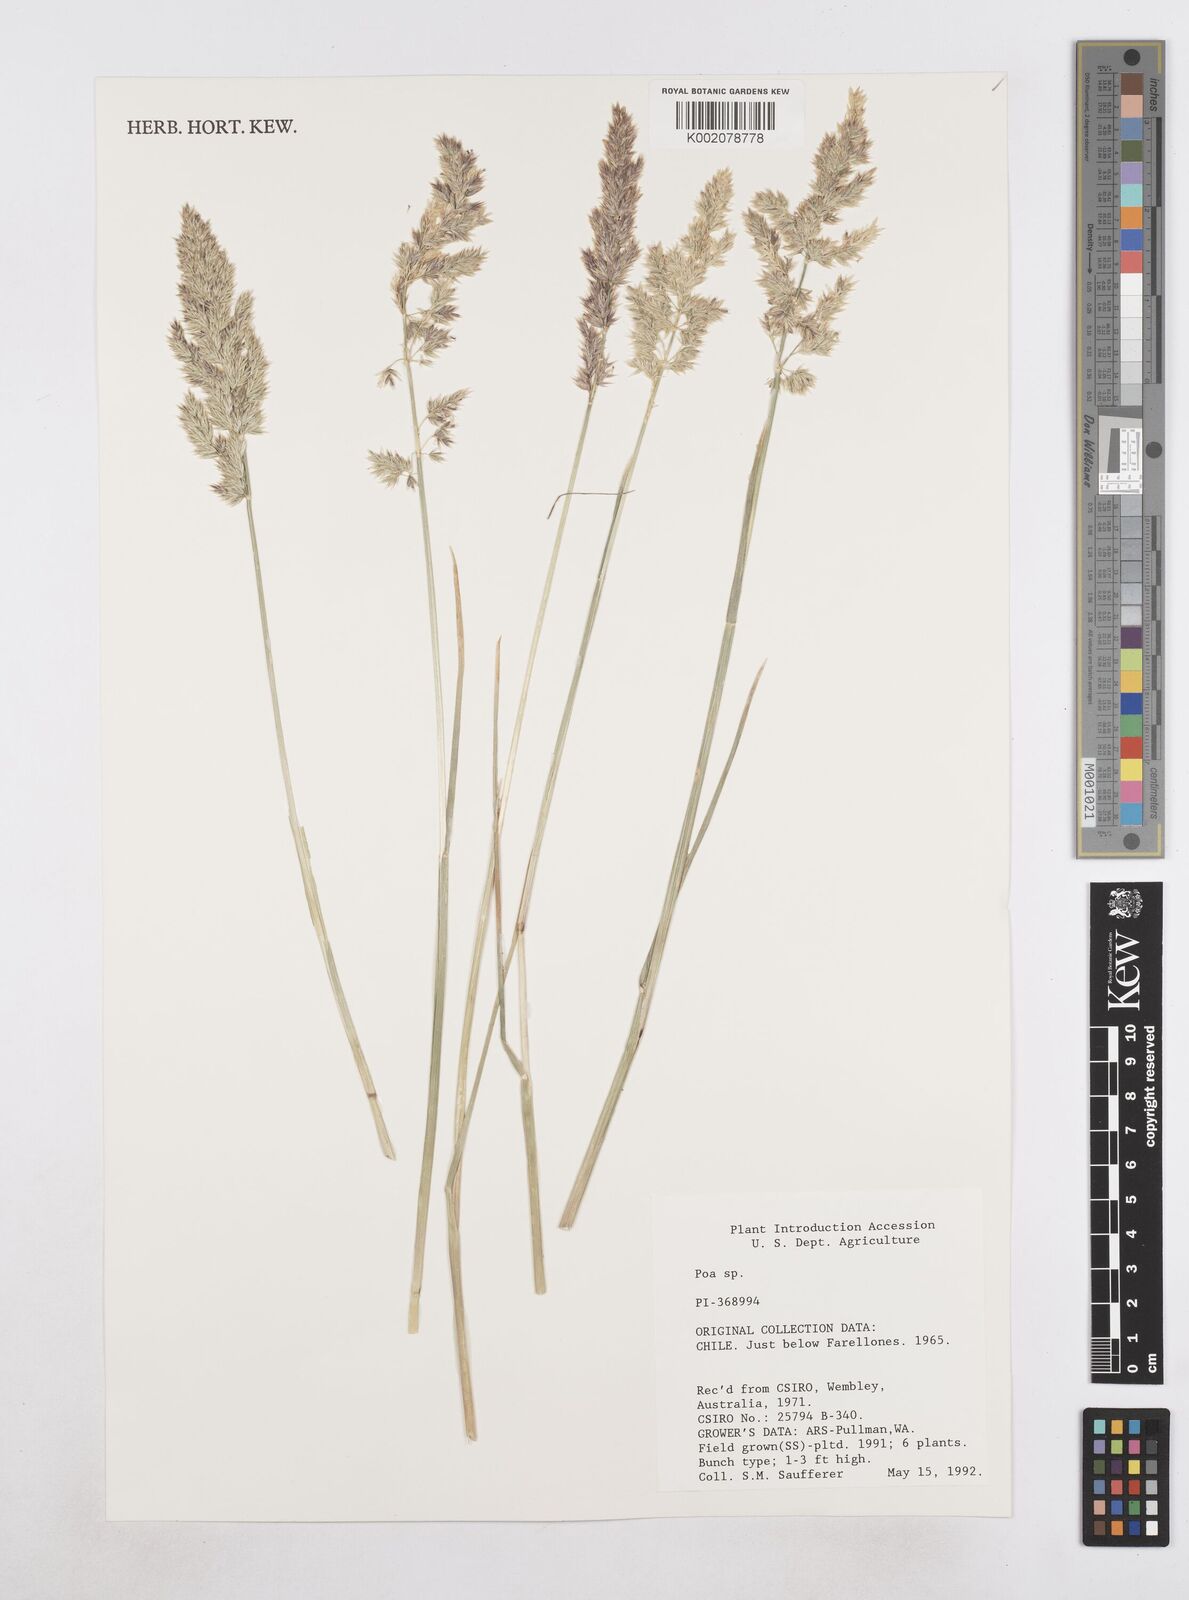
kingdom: Plantae
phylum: Tracheophyta
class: Liliopsida
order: Poales
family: Poaceae
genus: Poa
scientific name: Poa
